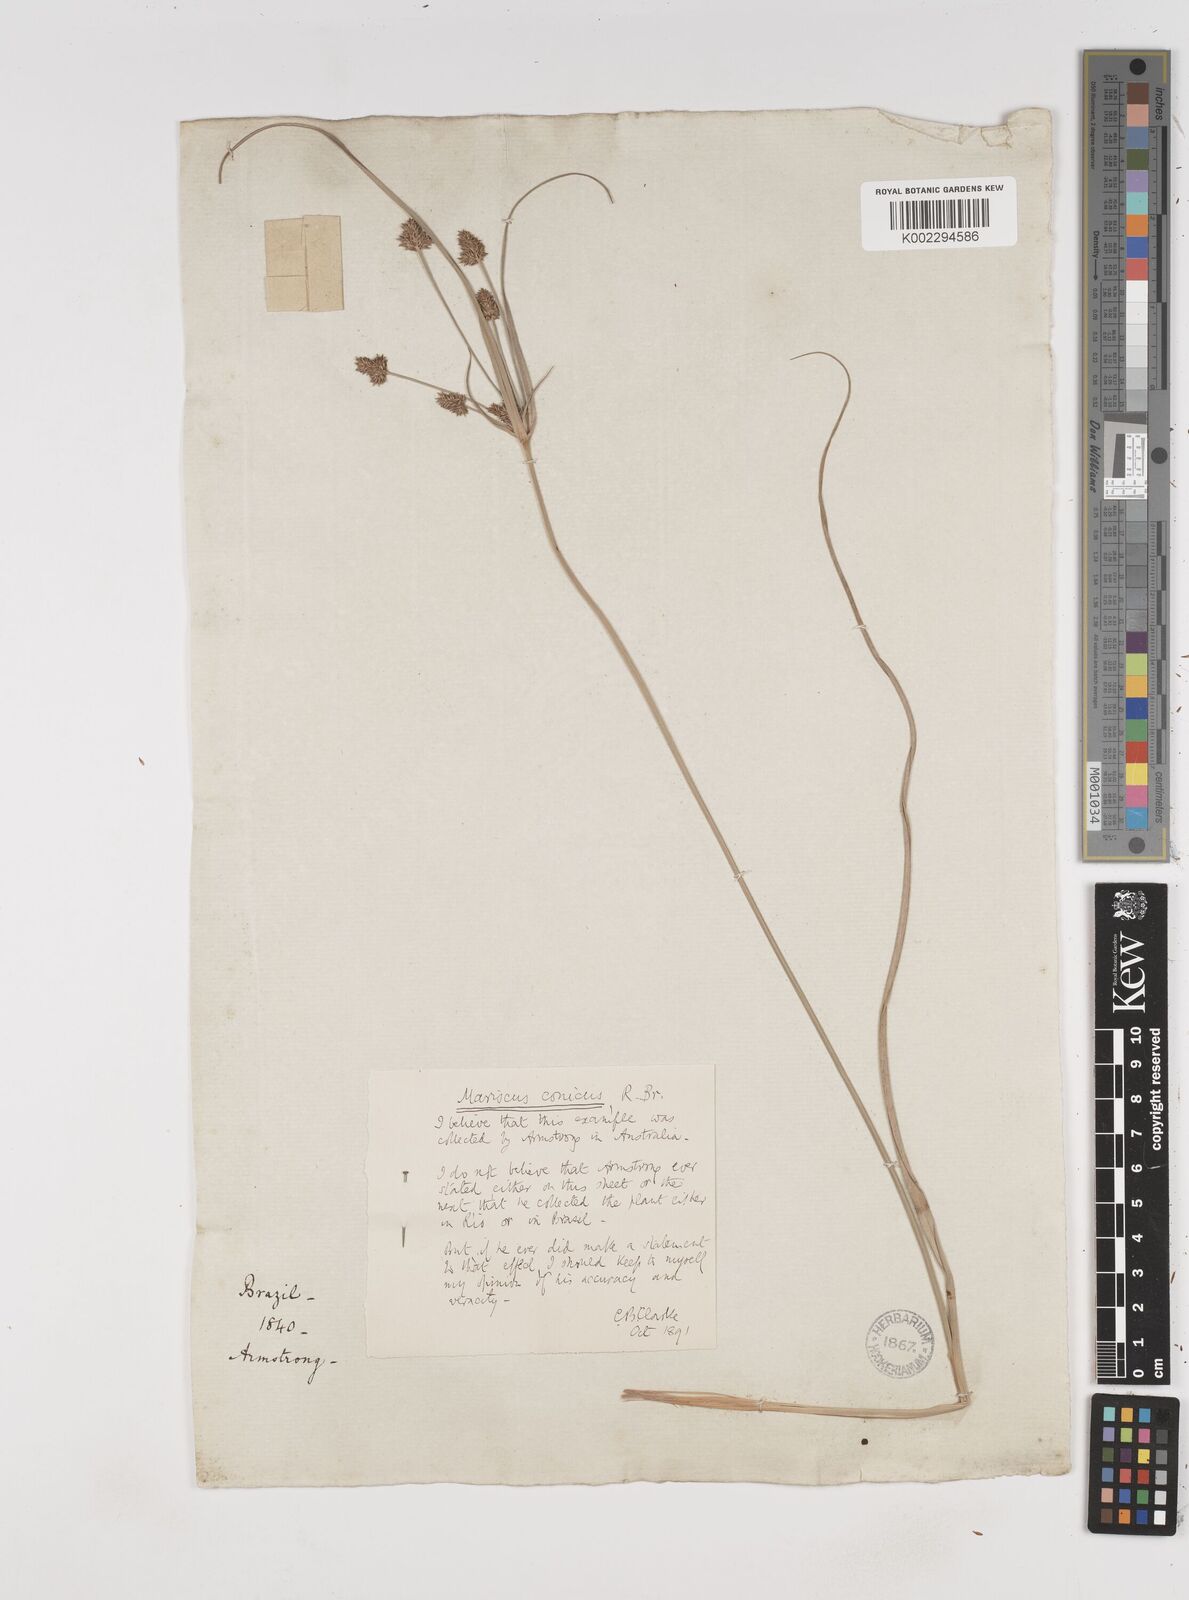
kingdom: Plantae
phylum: Tracheophyta
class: Liliopsida
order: Poales
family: Cyperaceae
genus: Cyperus
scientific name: Cyperus conicus
